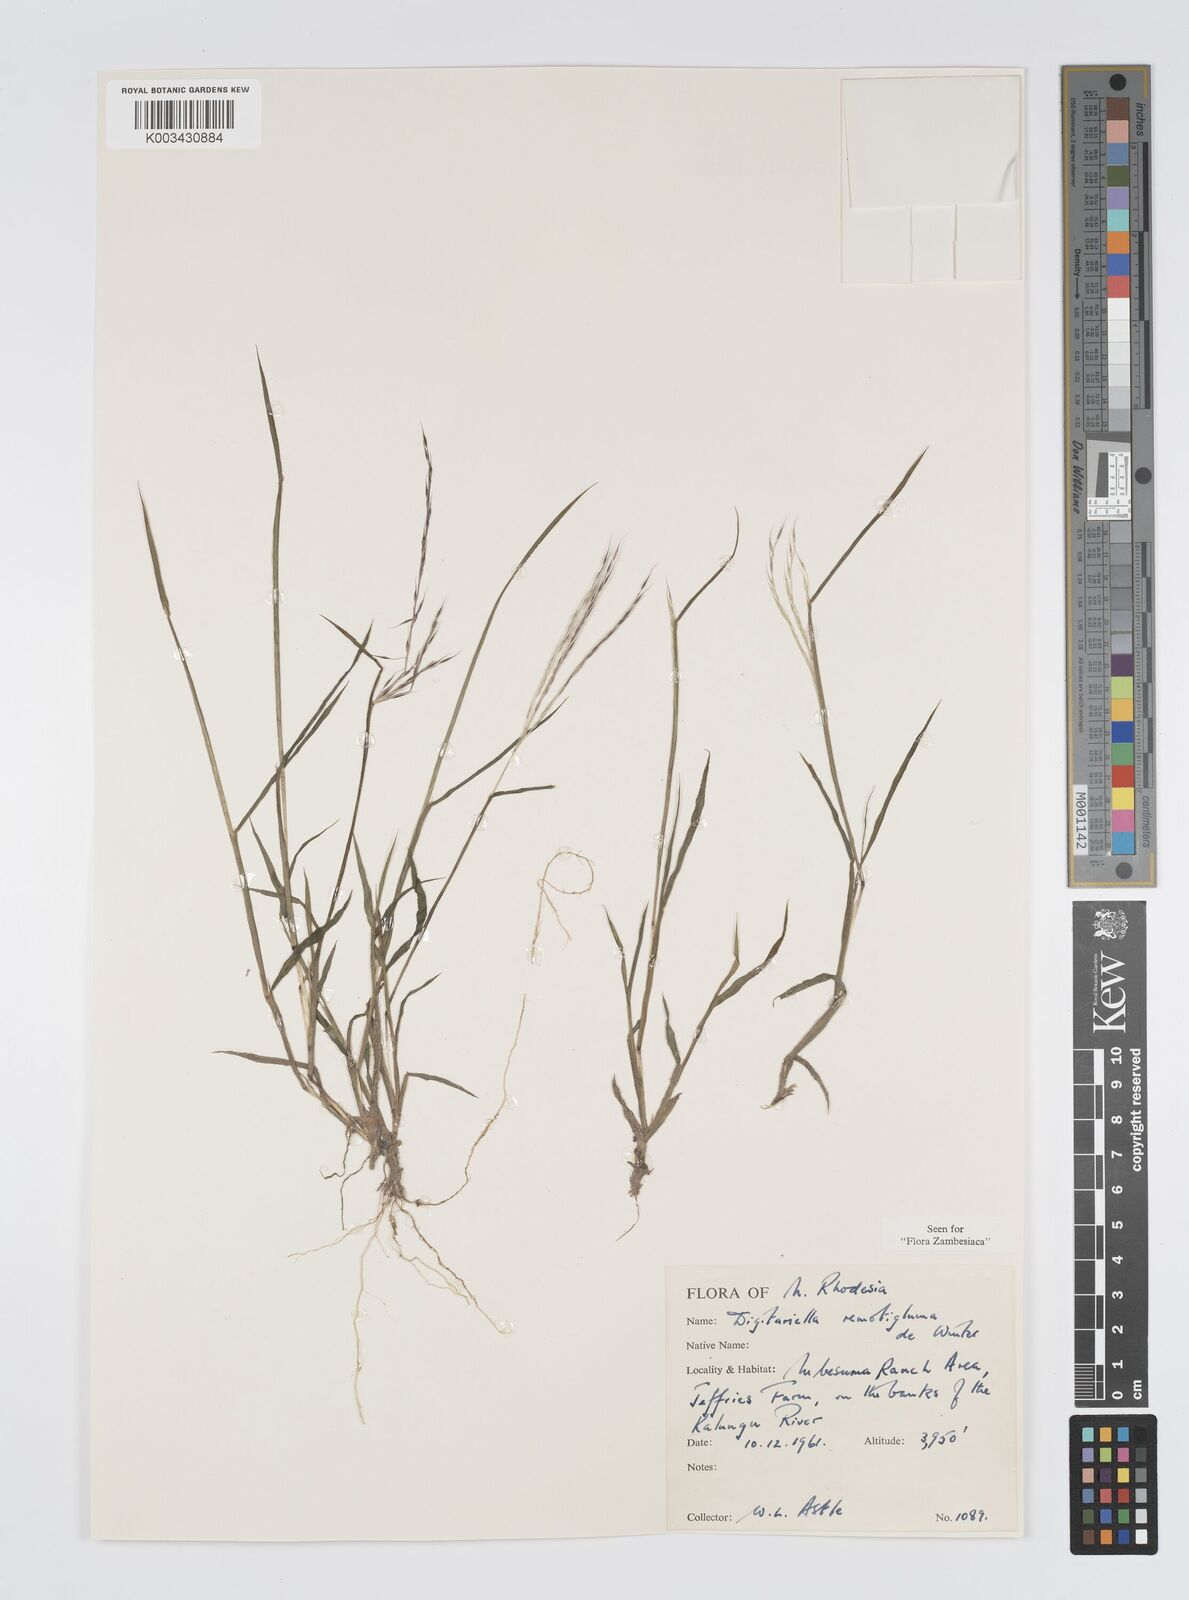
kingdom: Plantae
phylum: Tracheophyta
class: Liliopsida
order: Poales
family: Poaceae
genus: Digitaria
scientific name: Digitaria remotigluma
